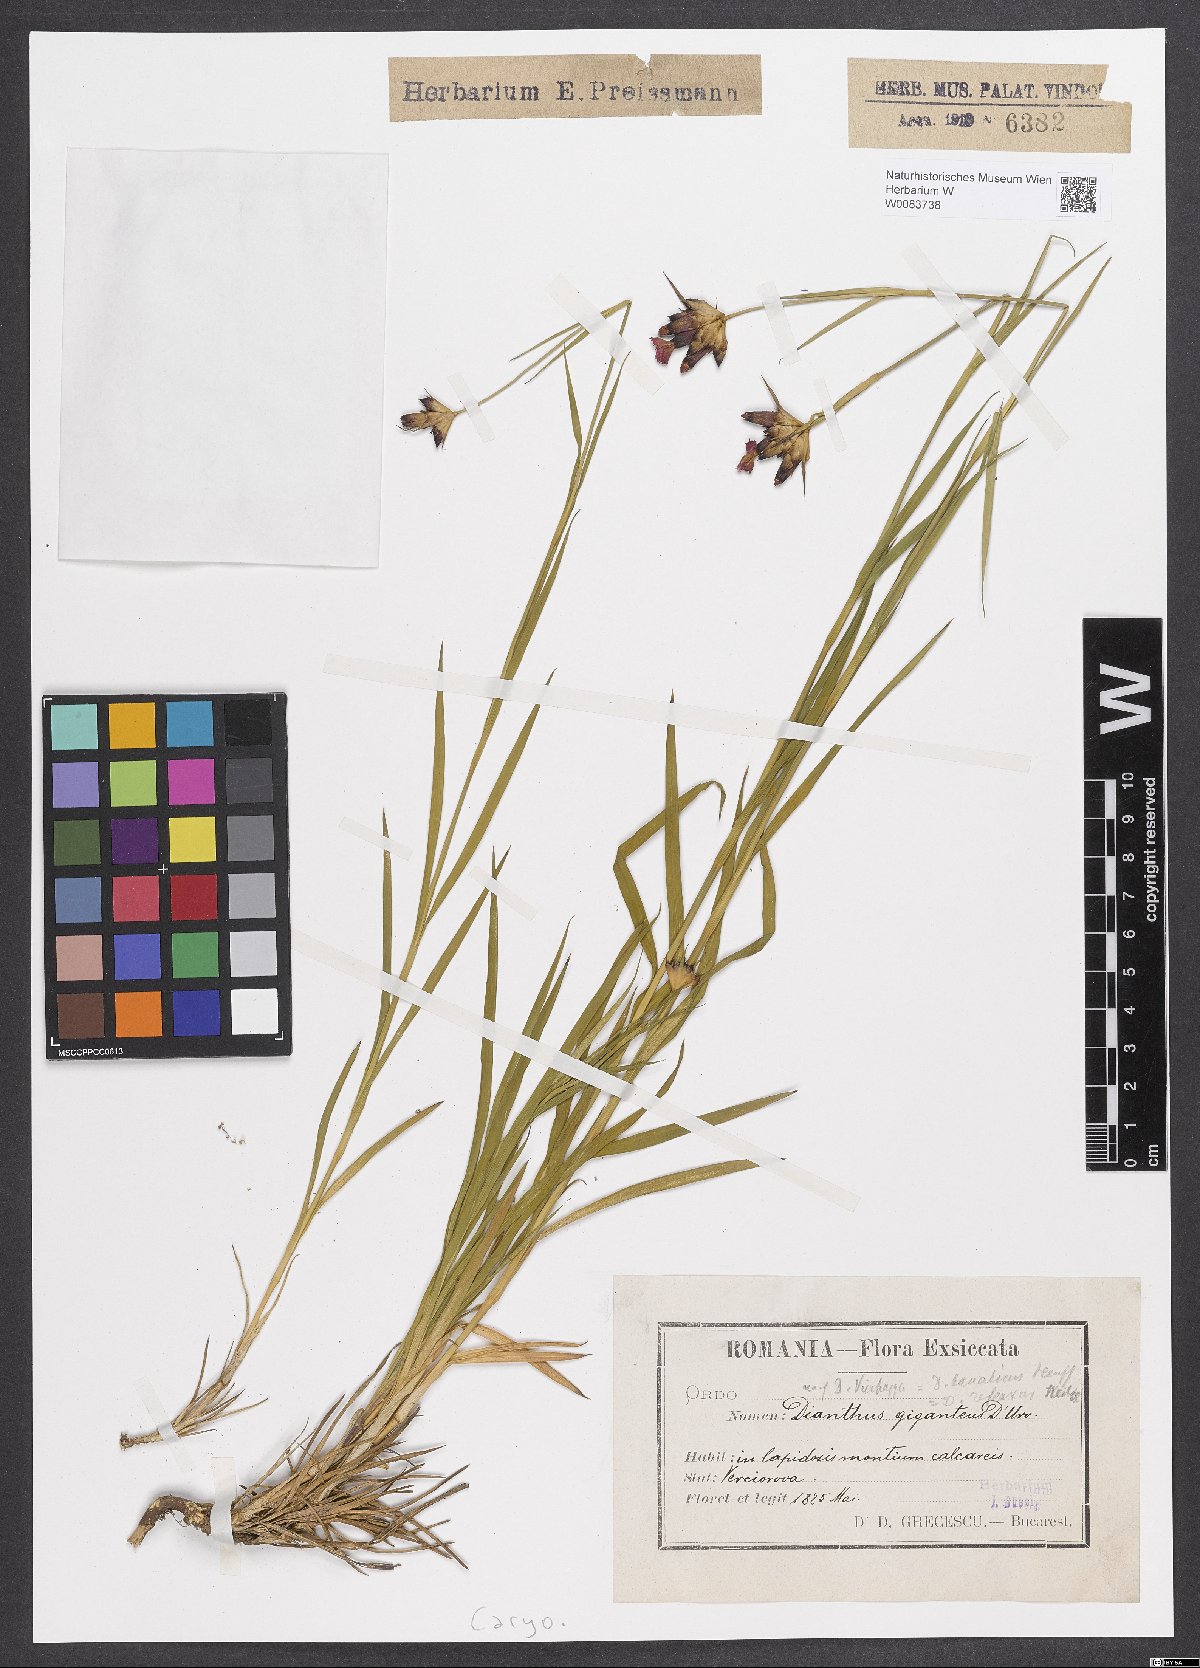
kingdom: Plantae
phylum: Tracheophyta
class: Magnoliopsida
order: Caryophyllales
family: Caryophyllaceae
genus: Dianthus
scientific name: Dianthus giganteus
